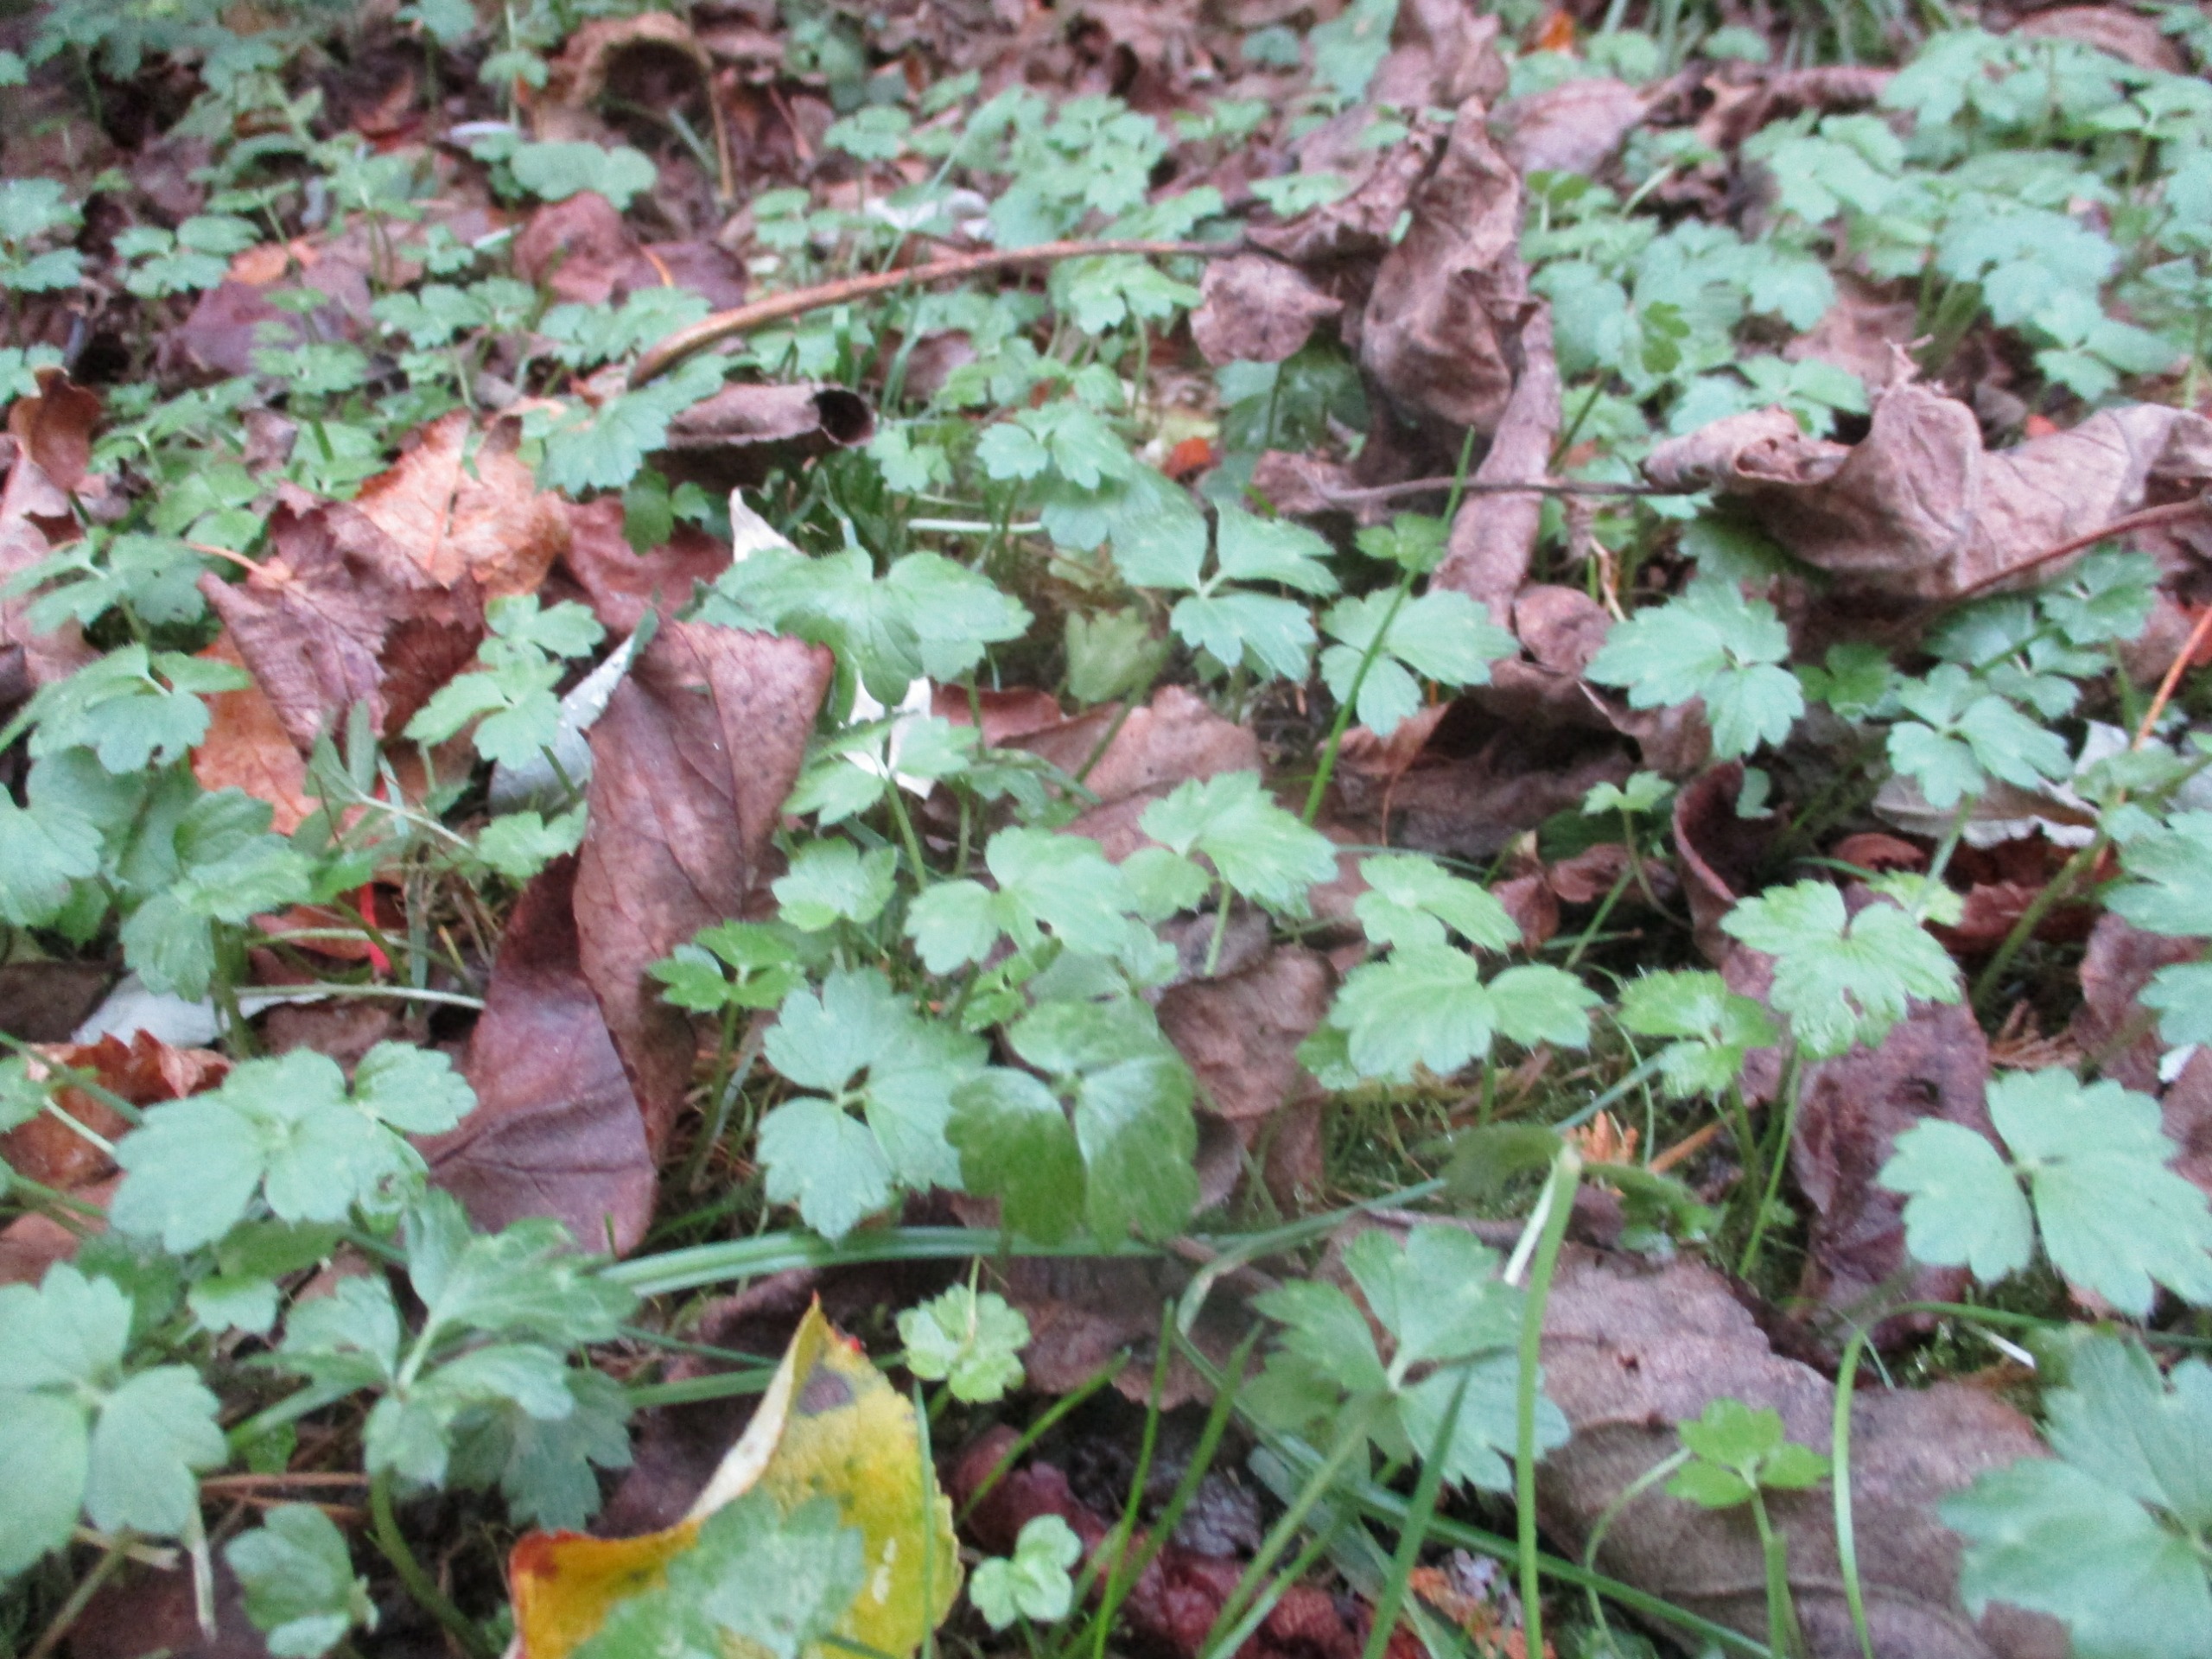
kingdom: Plantae
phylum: Tracheophyta
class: Magnoliopsida
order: Ranunculales
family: Ranunculaceae
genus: Ranunculus
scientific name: Ranunculus repens
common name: Lav ranunkel
